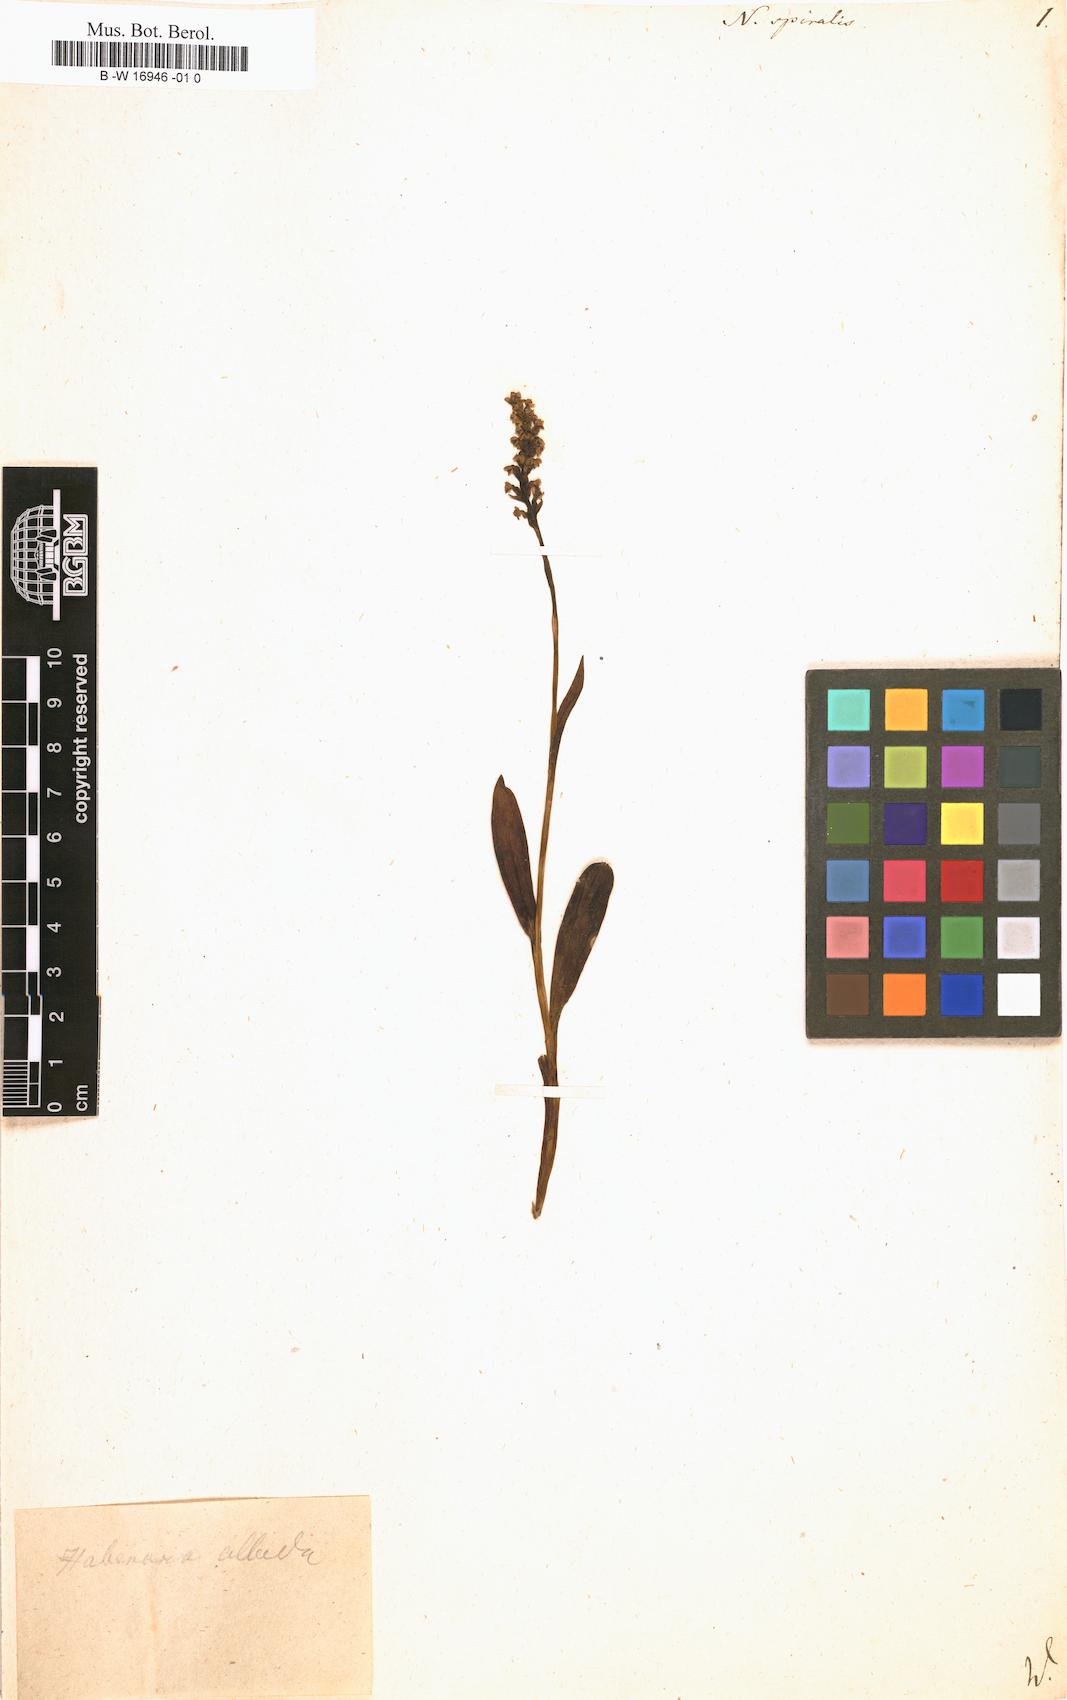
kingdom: Plantae
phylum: Tracheophyta
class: Liliopsida
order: Asparagales
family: Orchidaceae
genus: Spiranthes
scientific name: Spiranthes spiralis
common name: Autumn lady's-tresses
